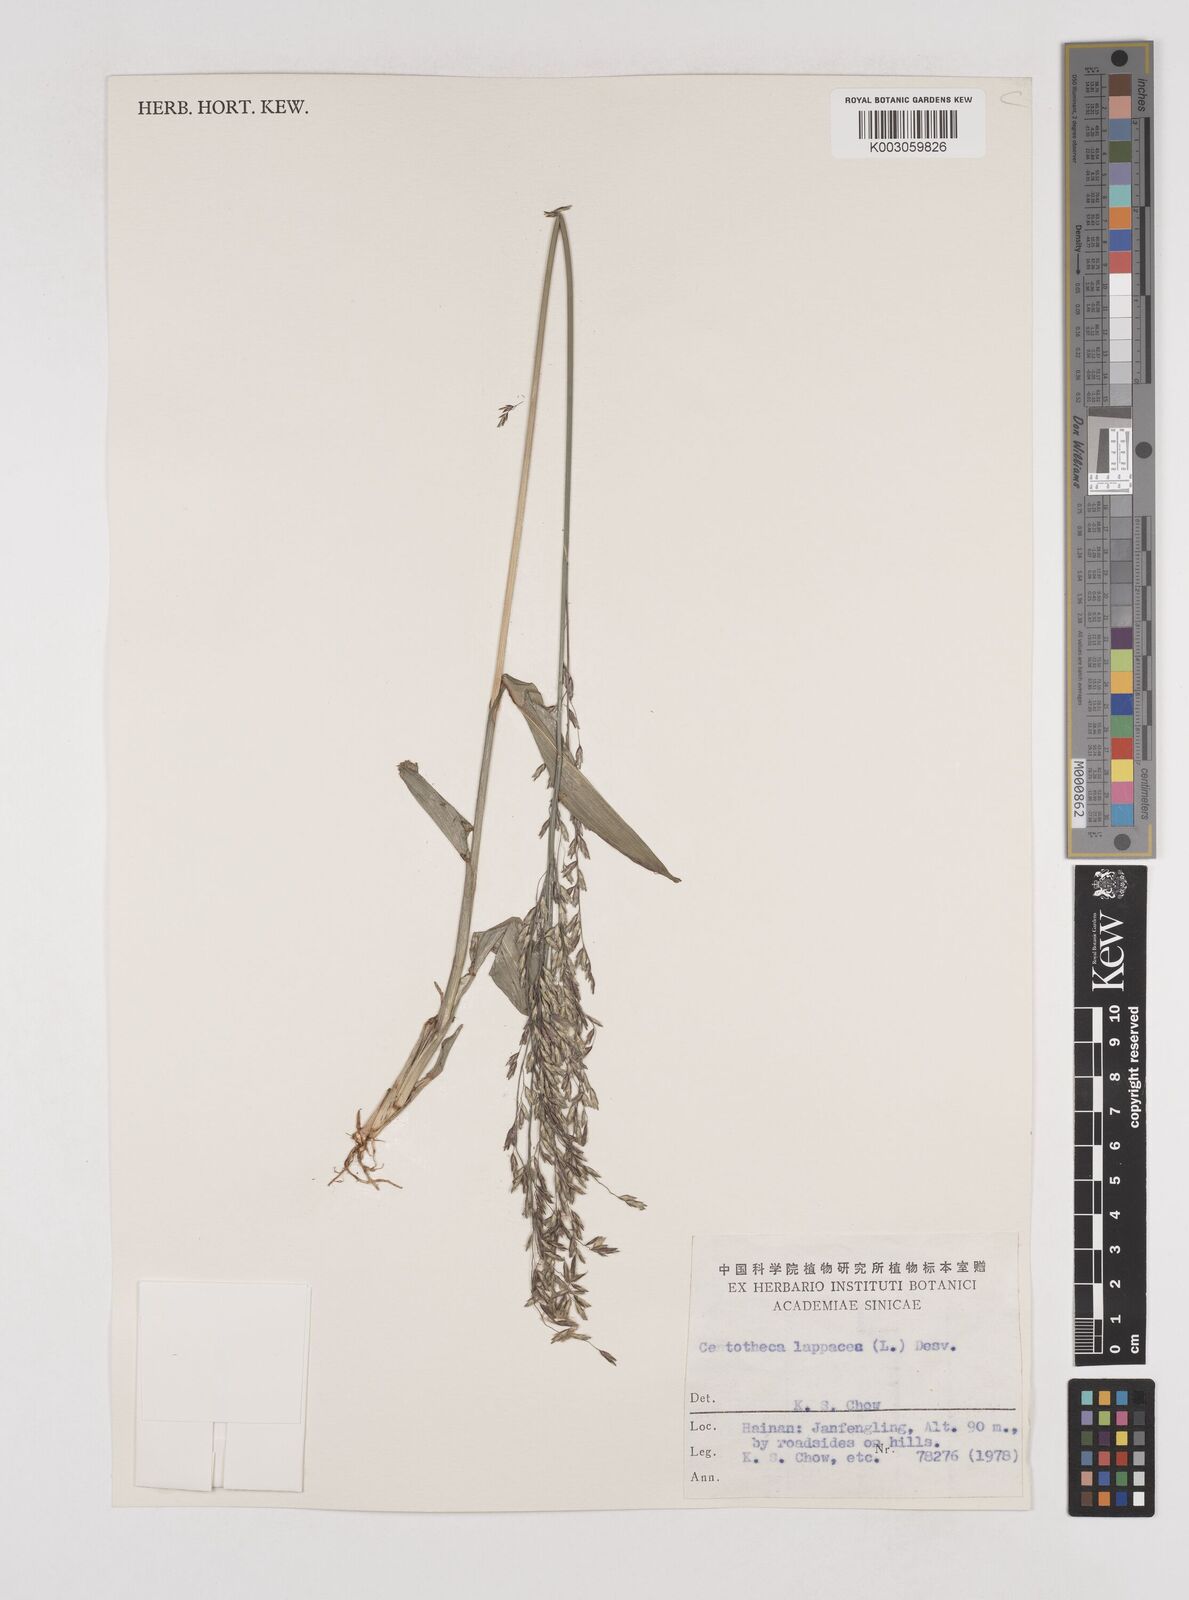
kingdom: Plantae
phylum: Tracheophyta
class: Liliopsida
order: Poales
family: Poaceae
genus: Centotheca
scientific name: Centotheca lappacea
